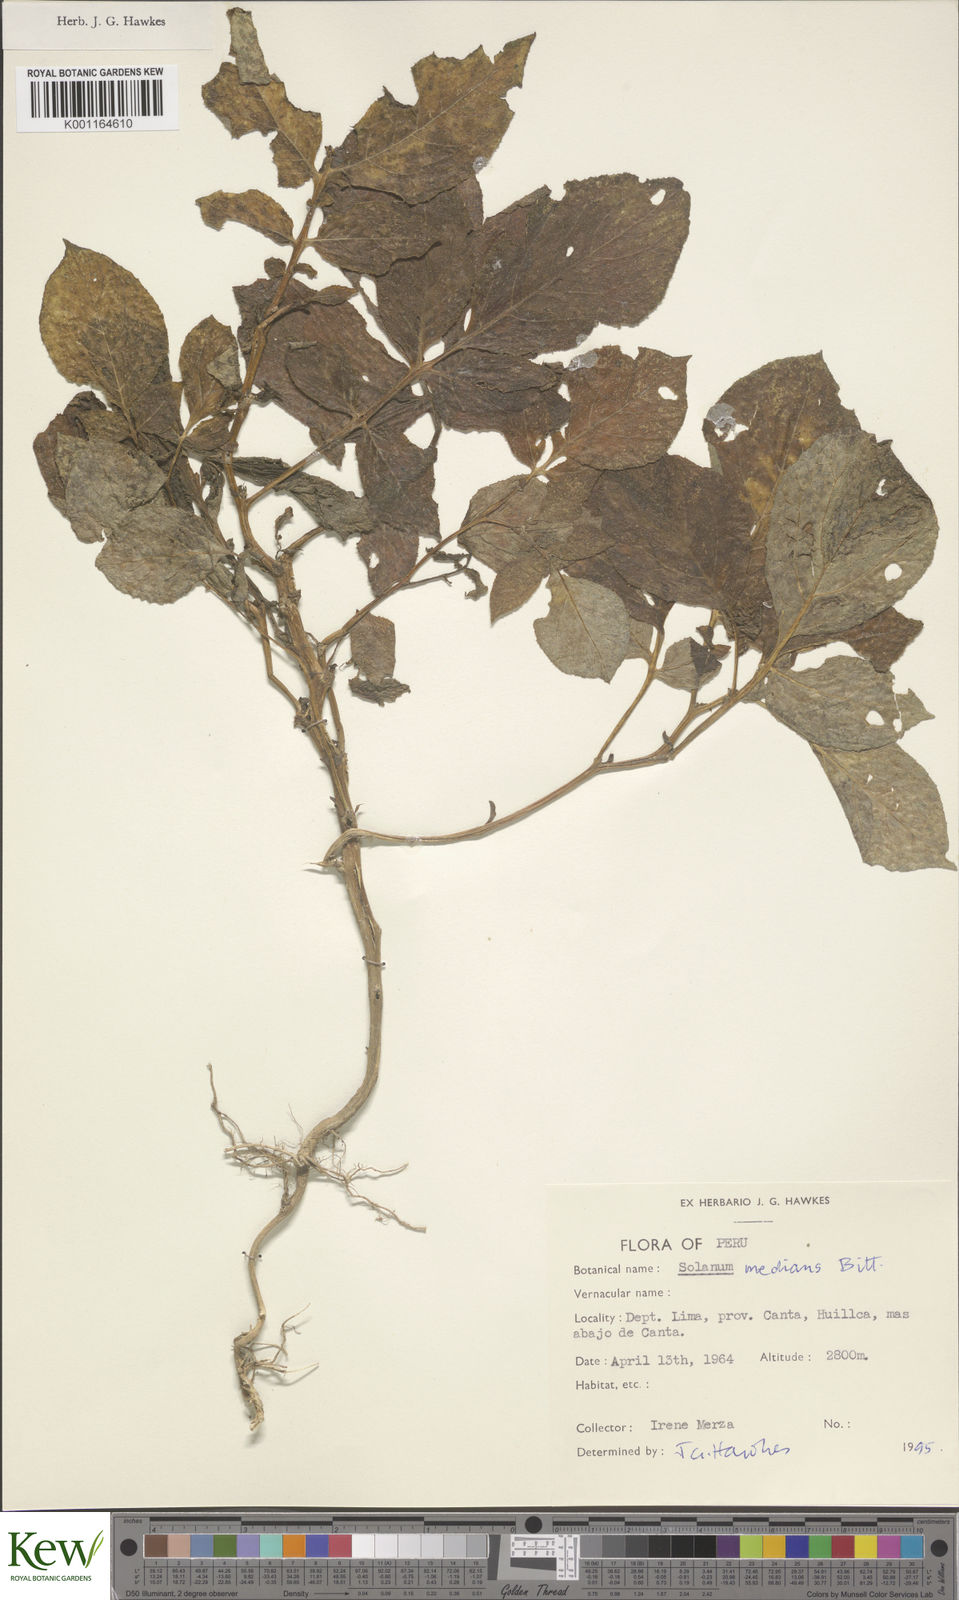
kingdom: Plantae
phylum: Tracheophyta
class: Magnoliopsida
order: Solanales
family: Solanaceae
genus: Solanum
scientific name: Solanum medians
